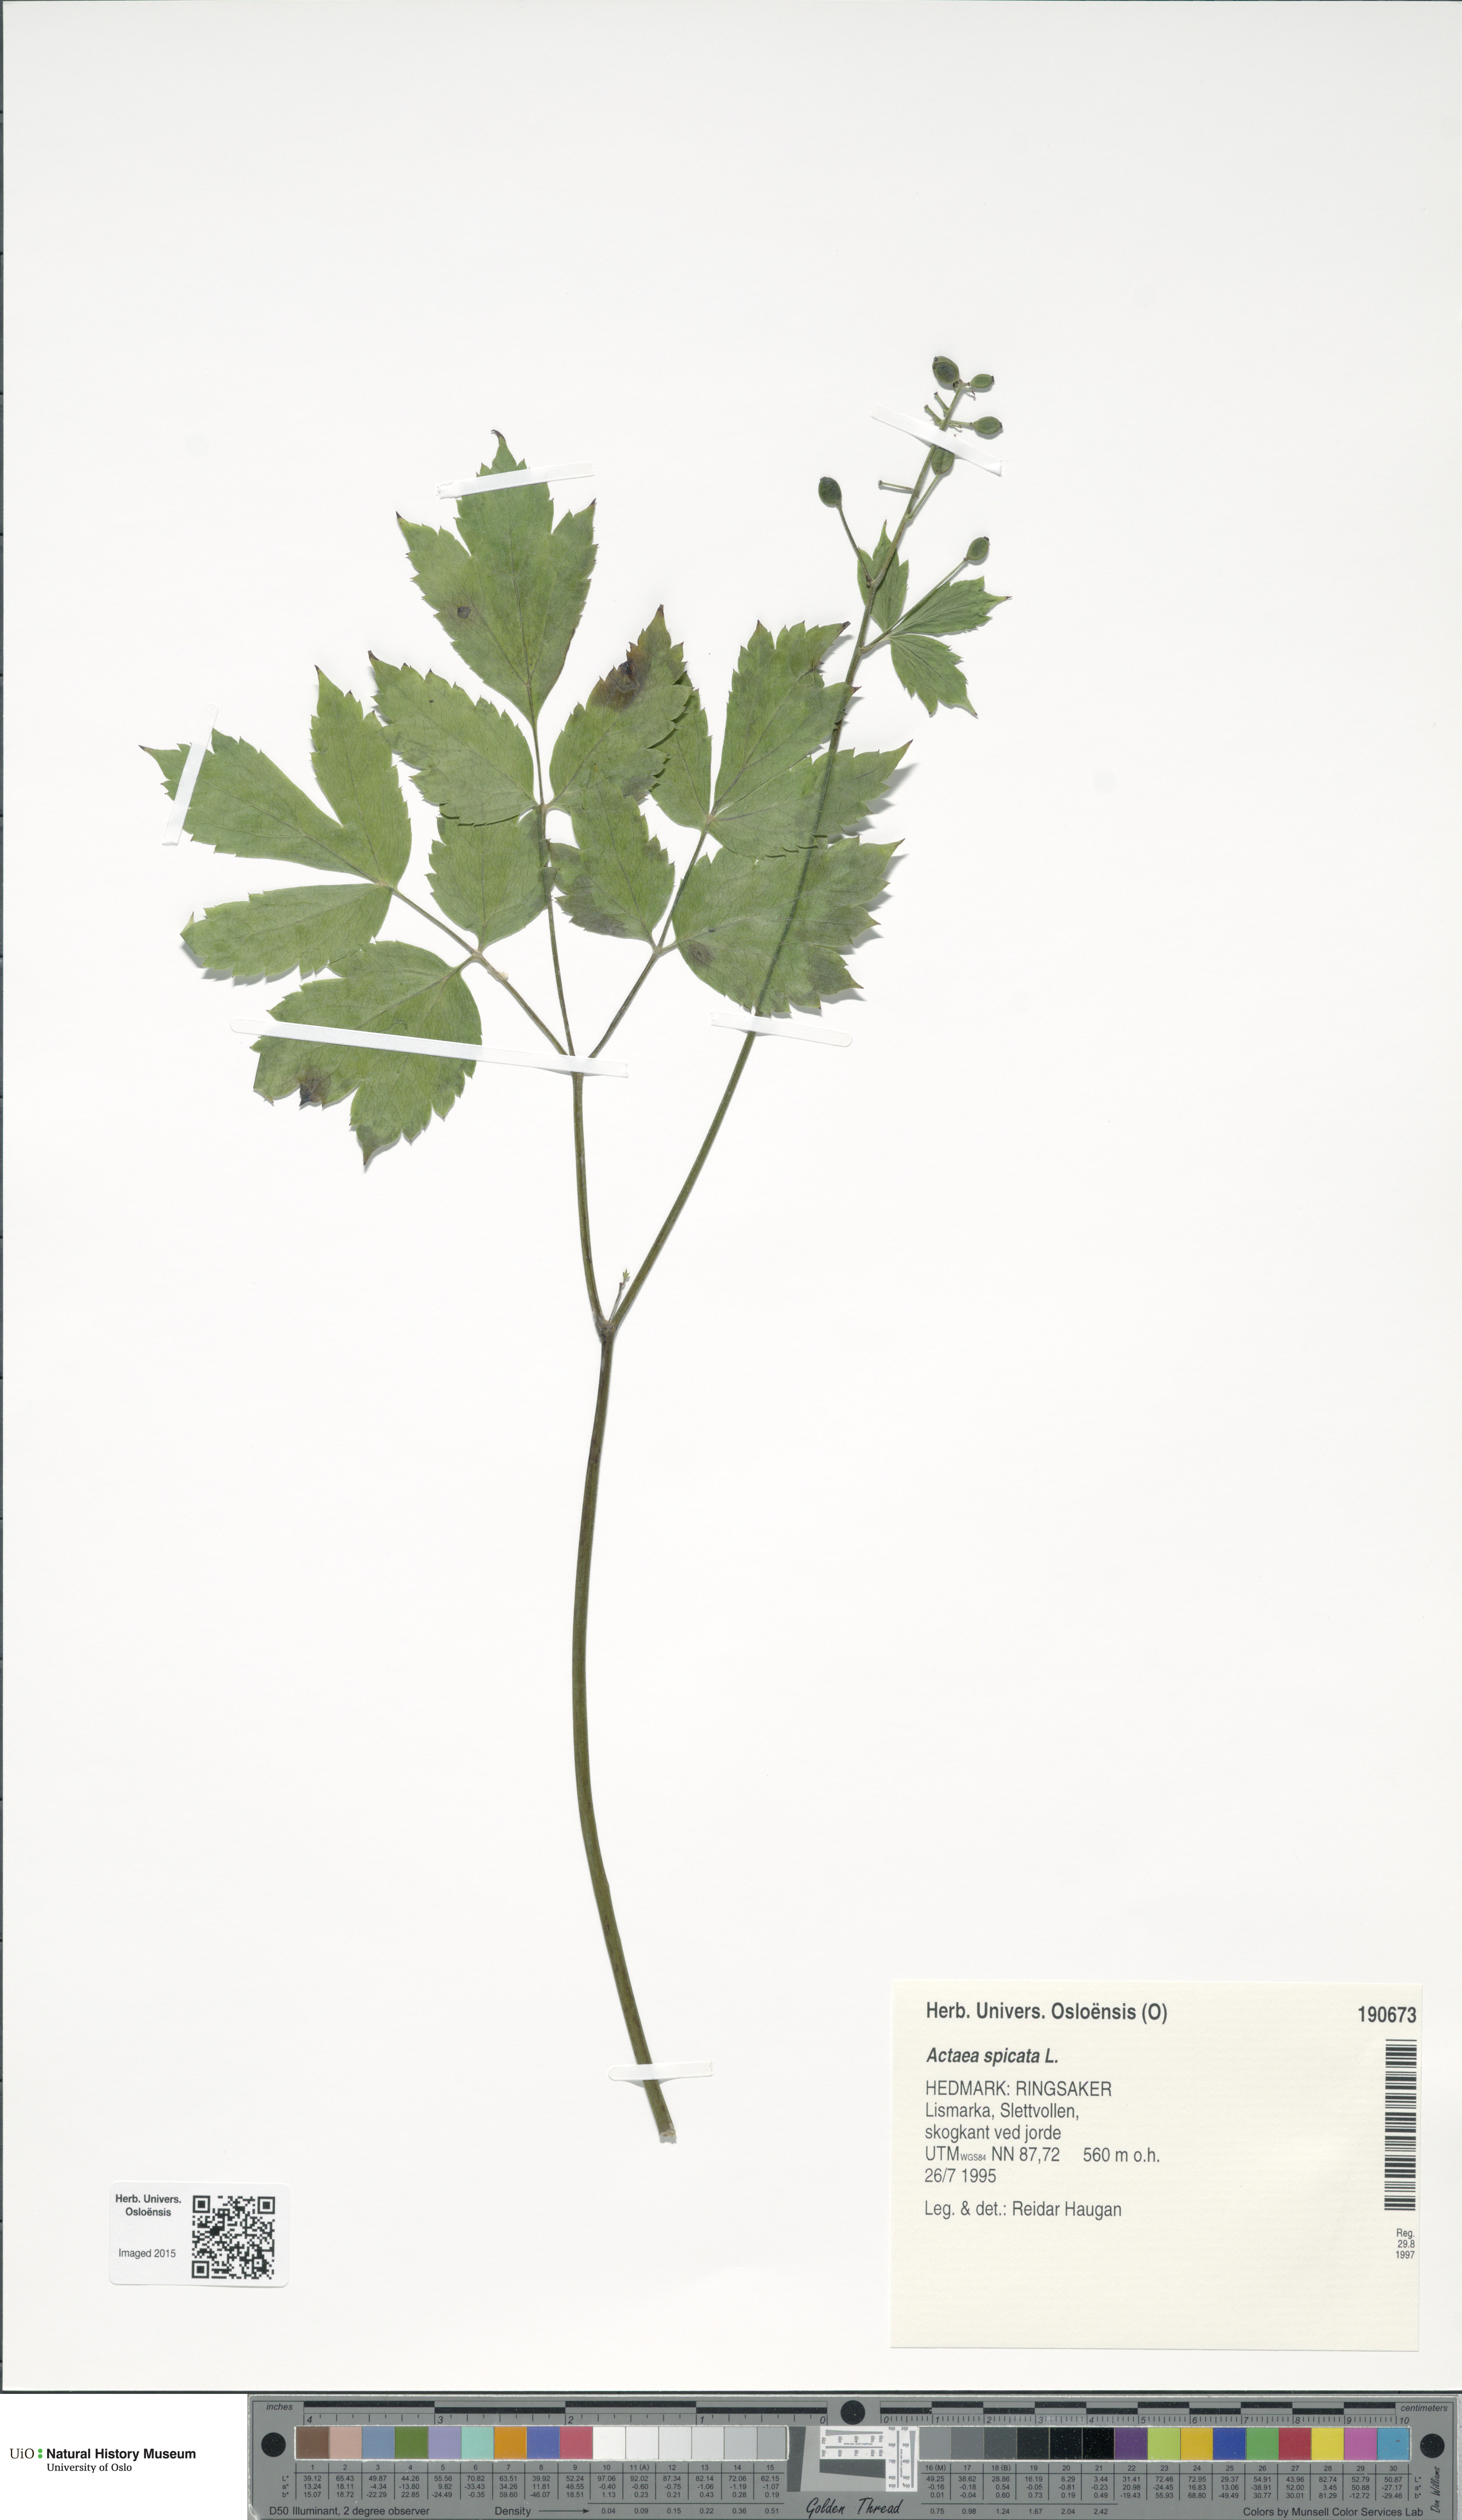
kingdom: Plantae
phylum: Tracheophyta
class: Magnoliopsida
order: Ranunculales
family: Ranunculaceae
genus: Actaea
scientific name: Actaea spicata
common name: Baneberry
